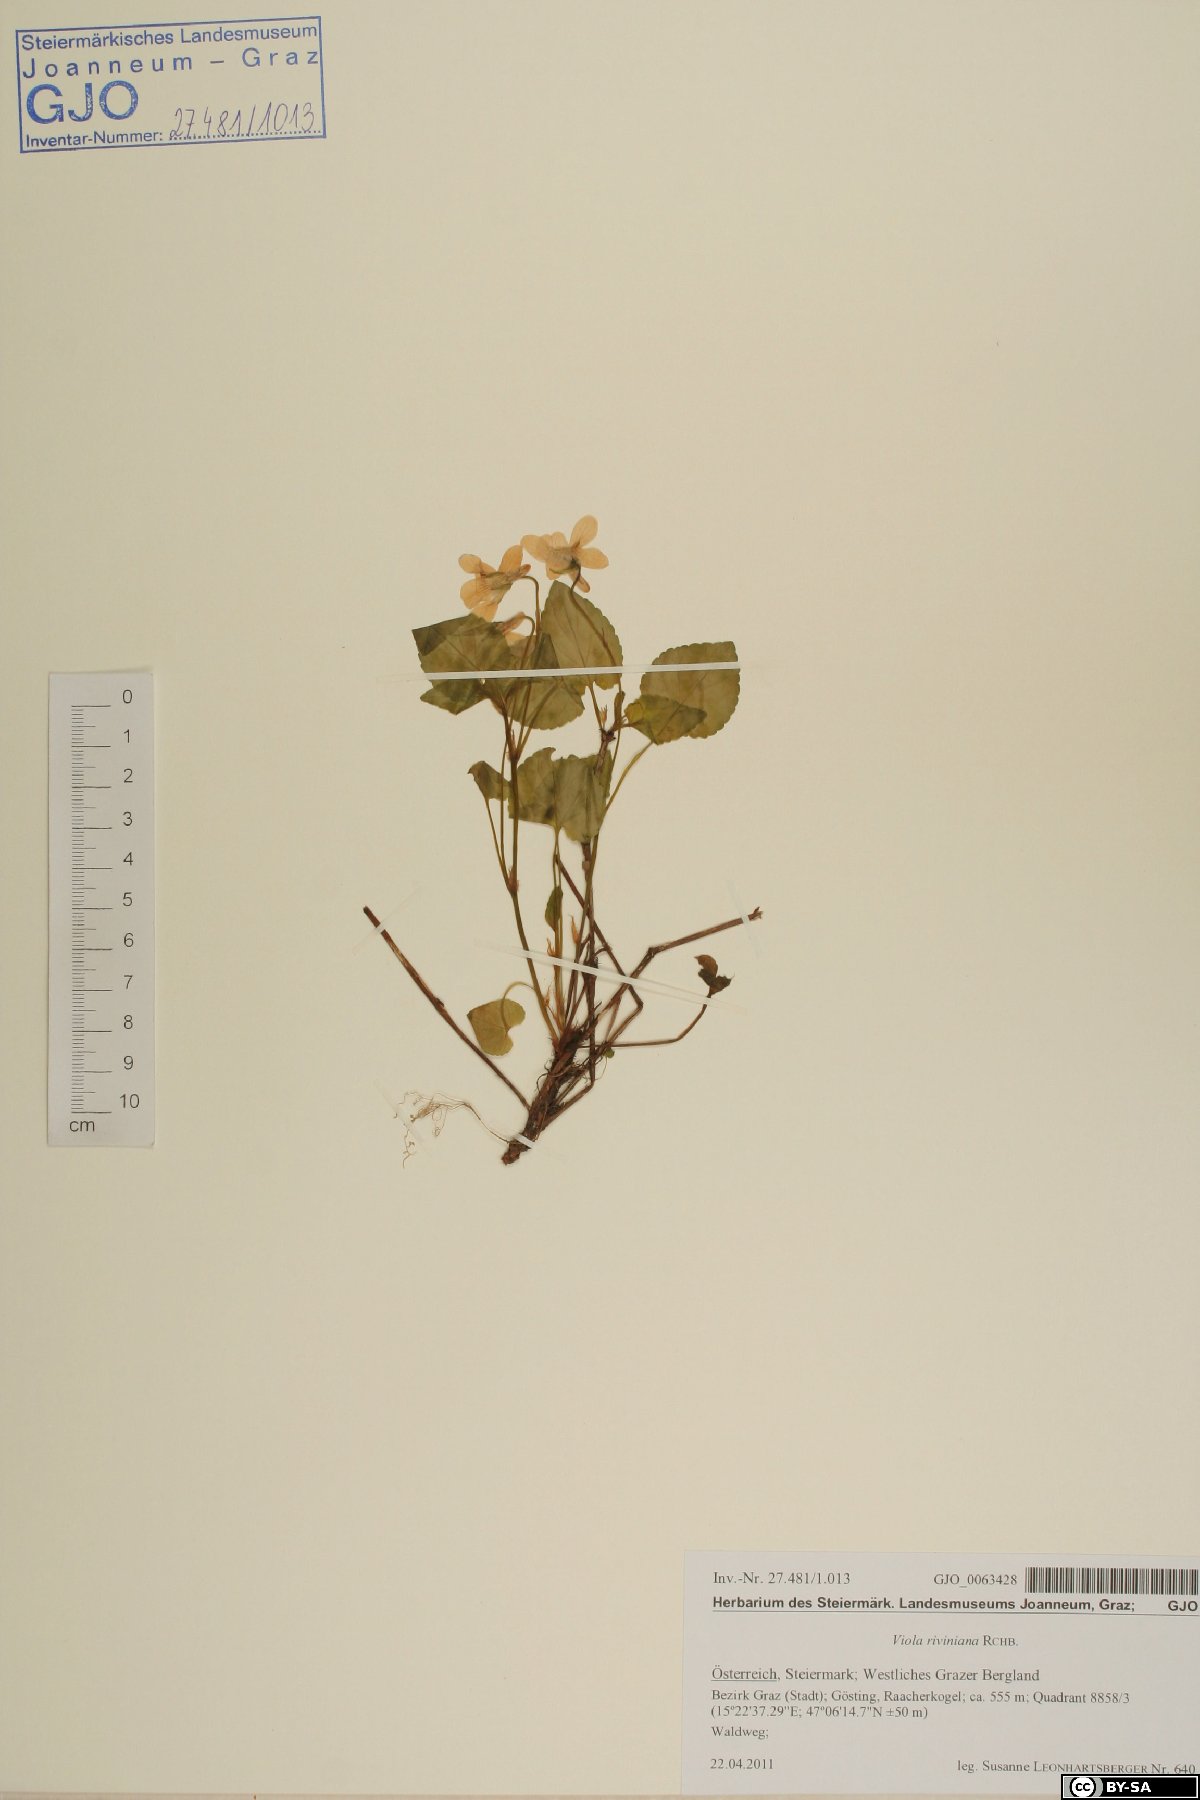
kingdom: Plantae
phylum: Tracheophyta
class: Magnoliopsida
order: Malpighiales
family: Violaceae
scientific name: Violaceae
